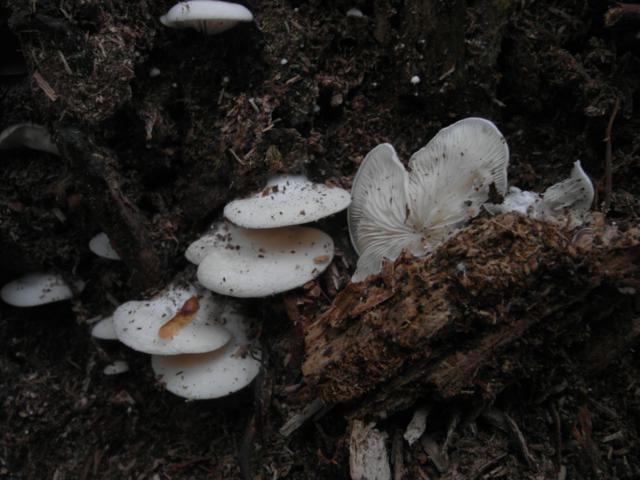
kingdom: Fungi
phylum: Basidiomycota
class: Agaricomycetes
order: Agaricales
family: Entolomataceae
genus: Clitopilus
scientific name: Clitopilus hobsonii
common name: Miller's oysterling
